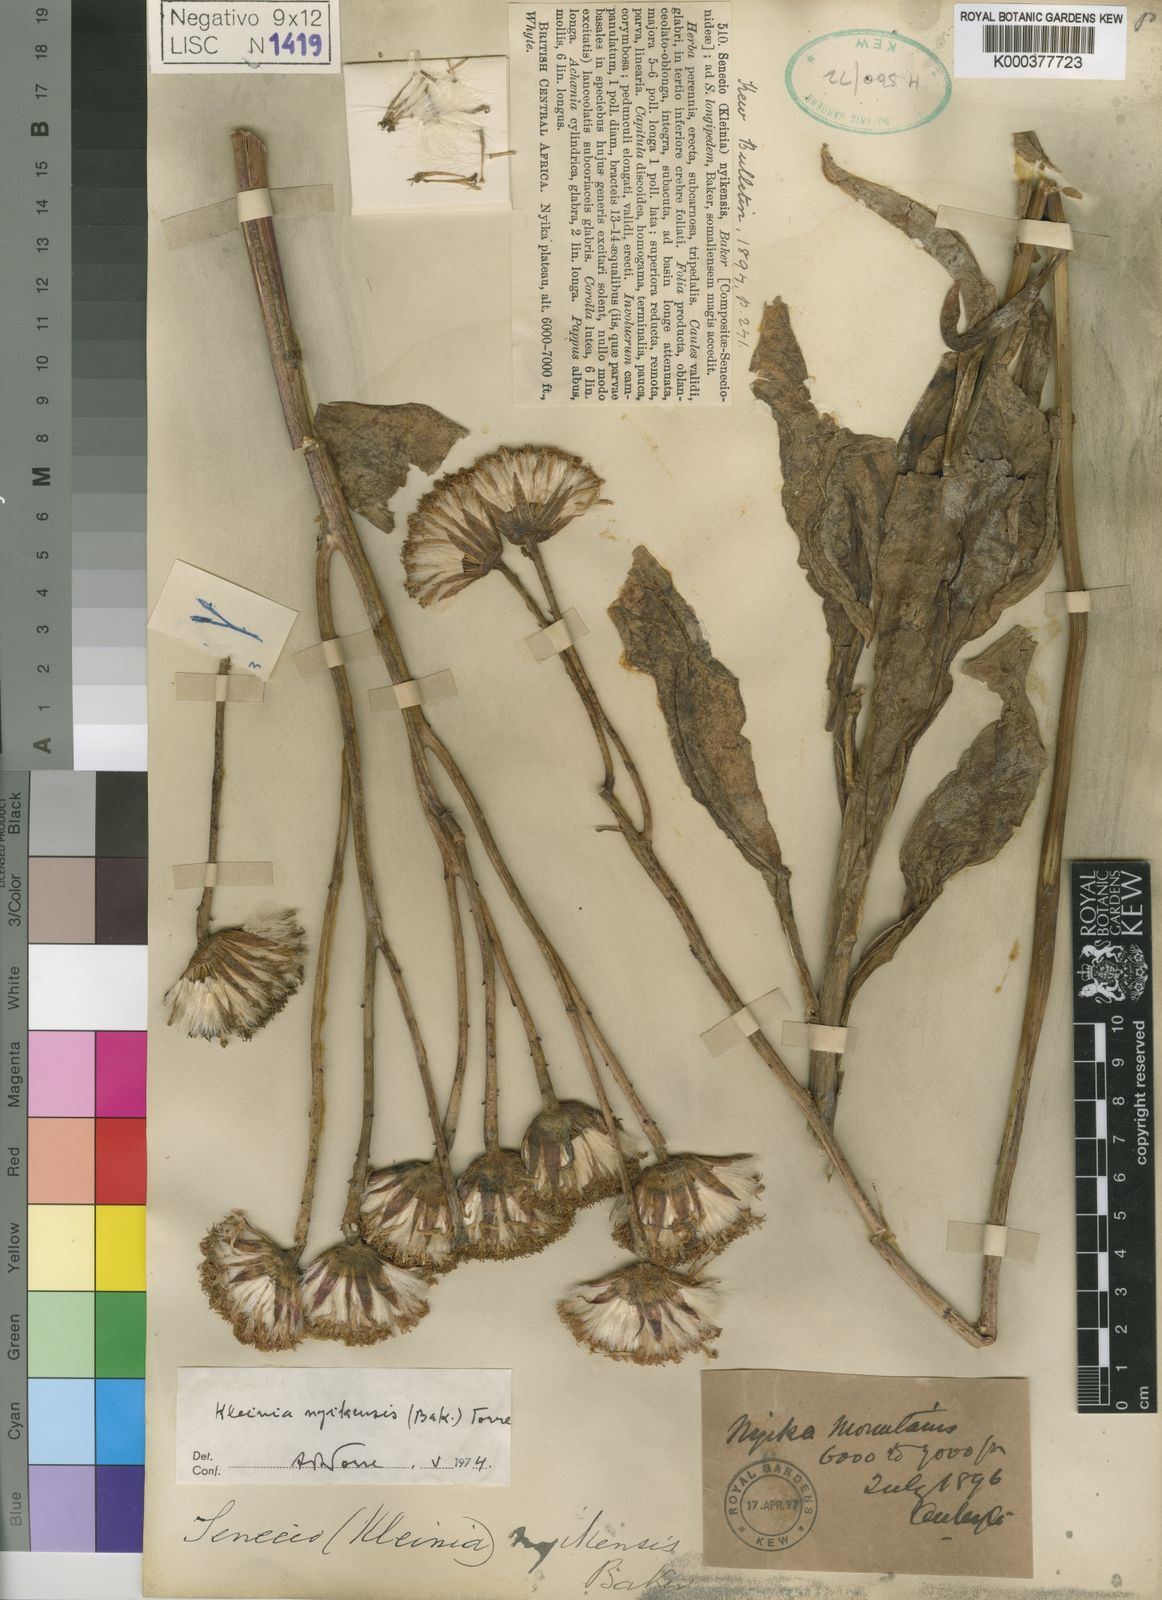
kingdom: Plantae
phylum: Tracheophyta
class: Magnoliopsida
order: Asterales
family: Asteraceae
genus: Kleinia
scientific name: Kleinia abyssinica
